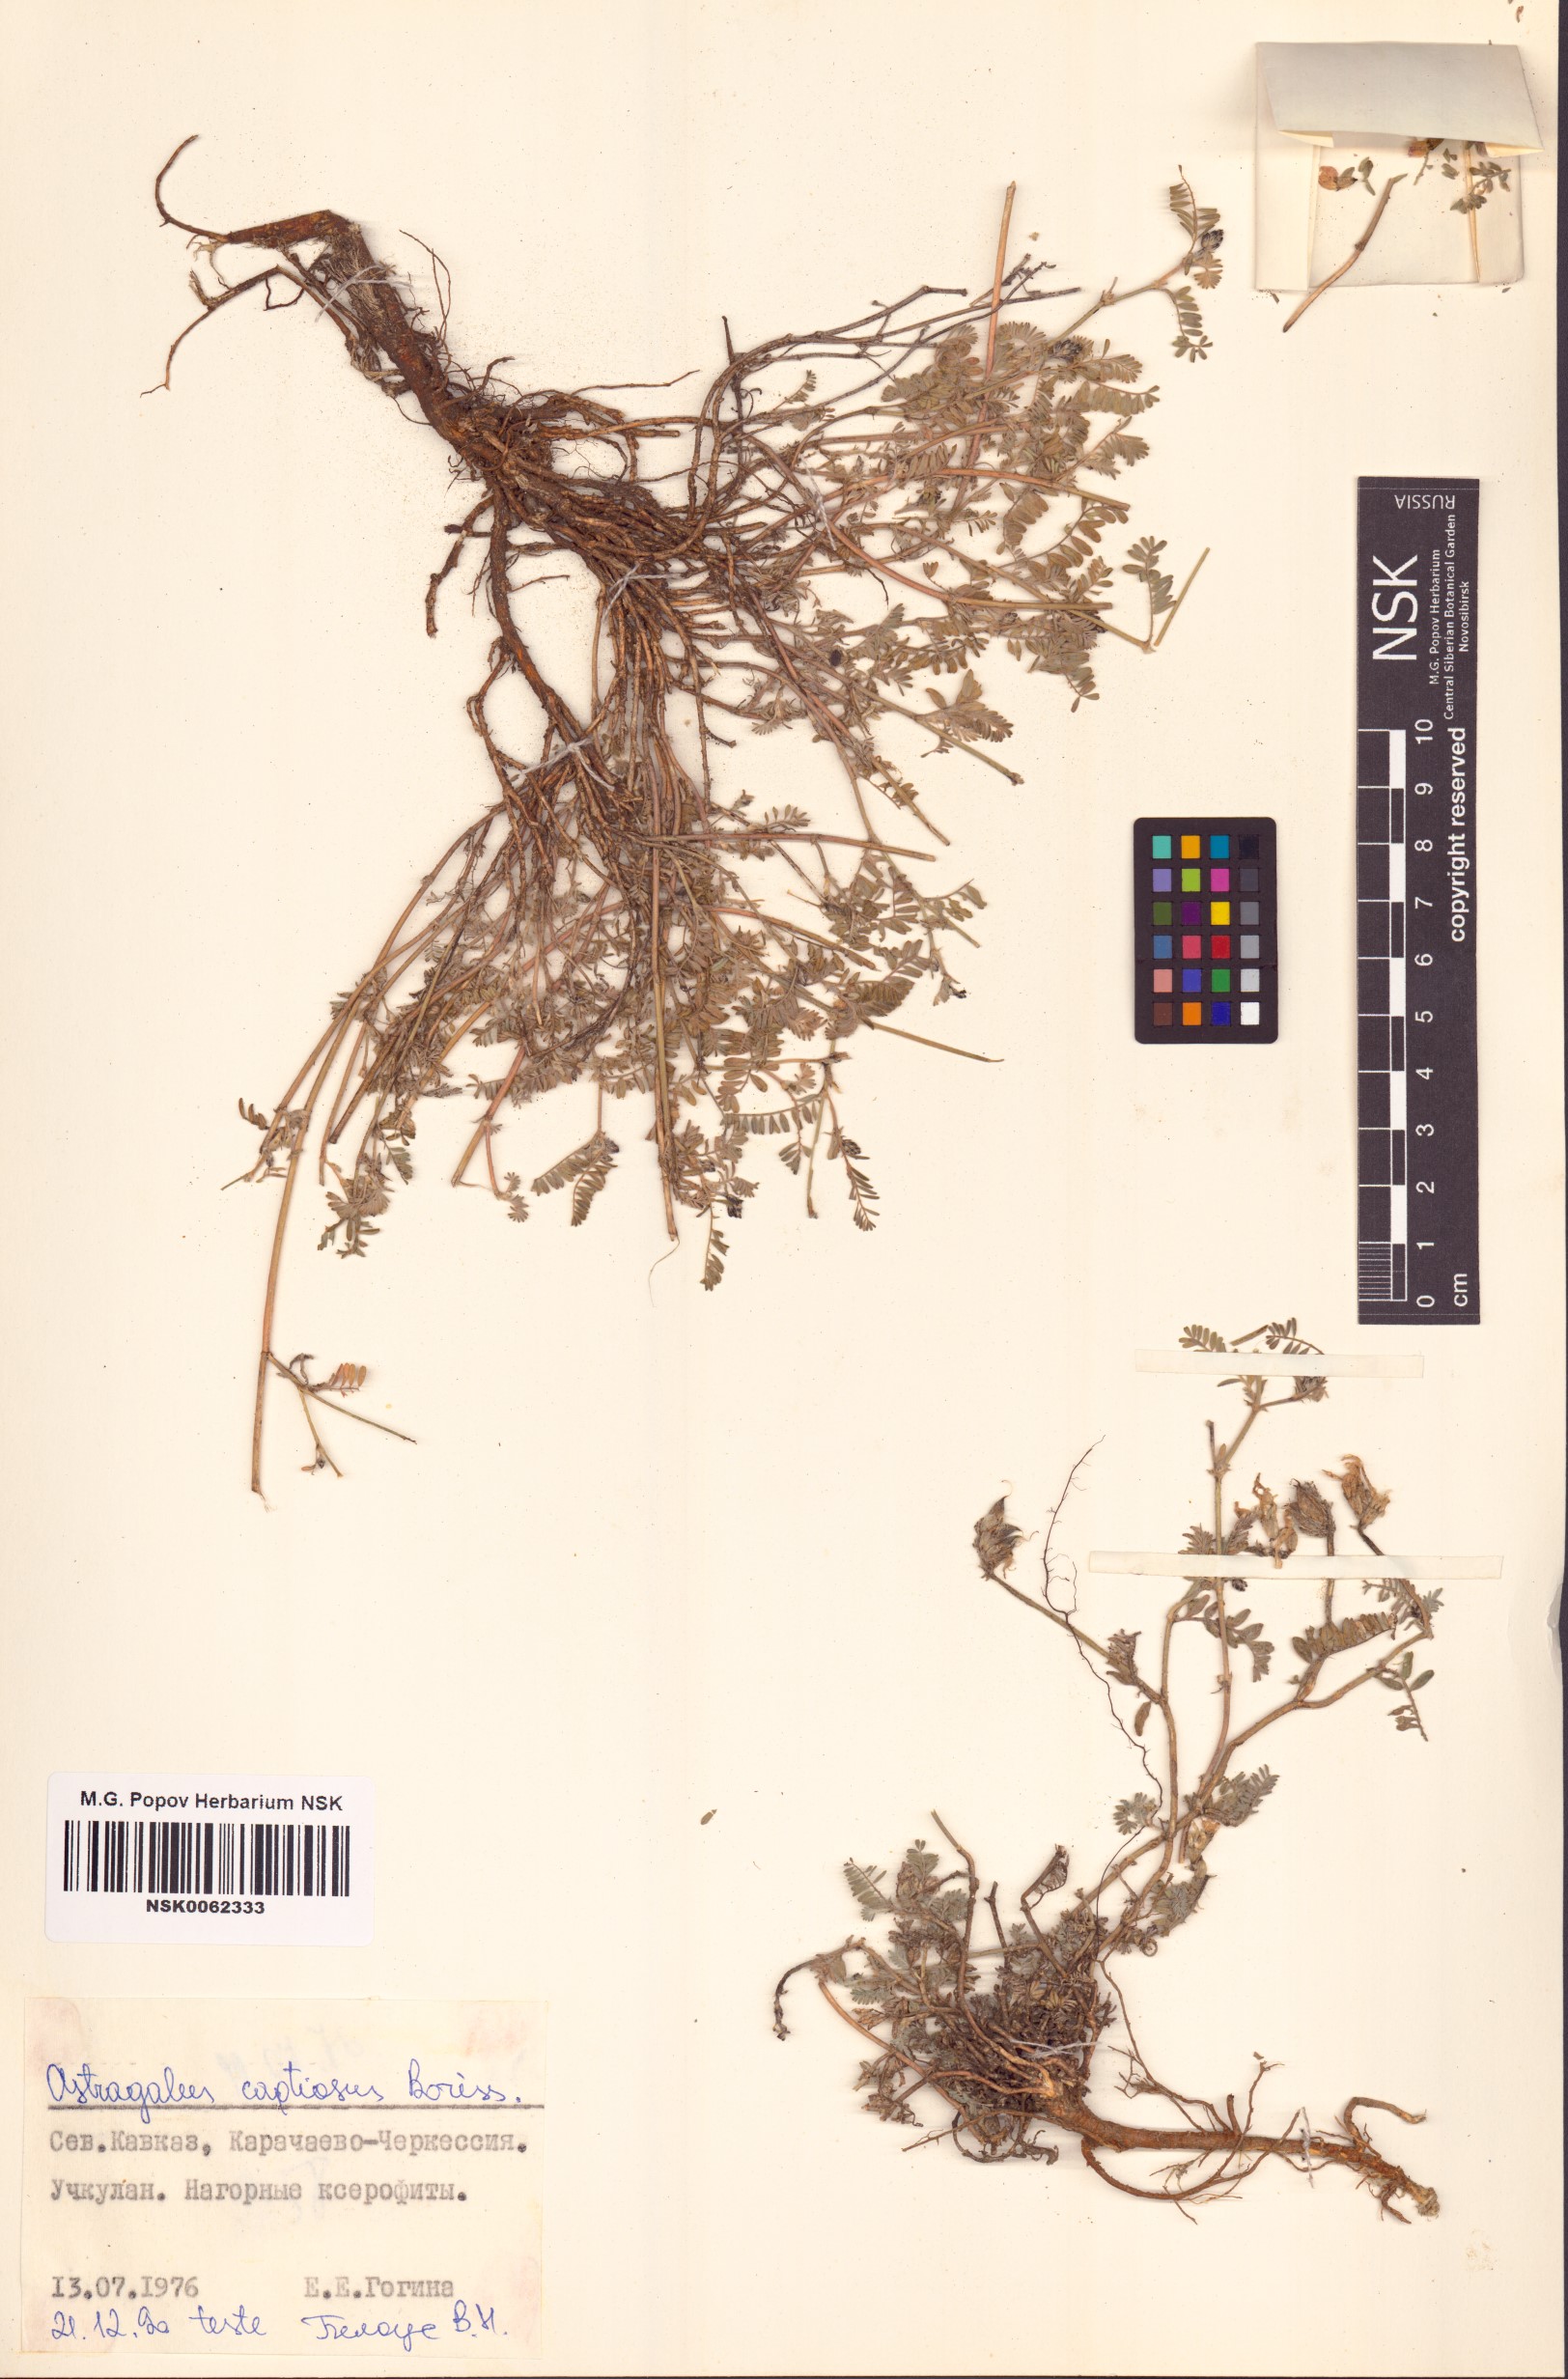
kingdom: Plantae
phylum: Tracheophyta
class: Magnoliopsida
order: Fabales
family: Fabaceae
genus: Astragalus
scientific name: Astragalus captiosus
